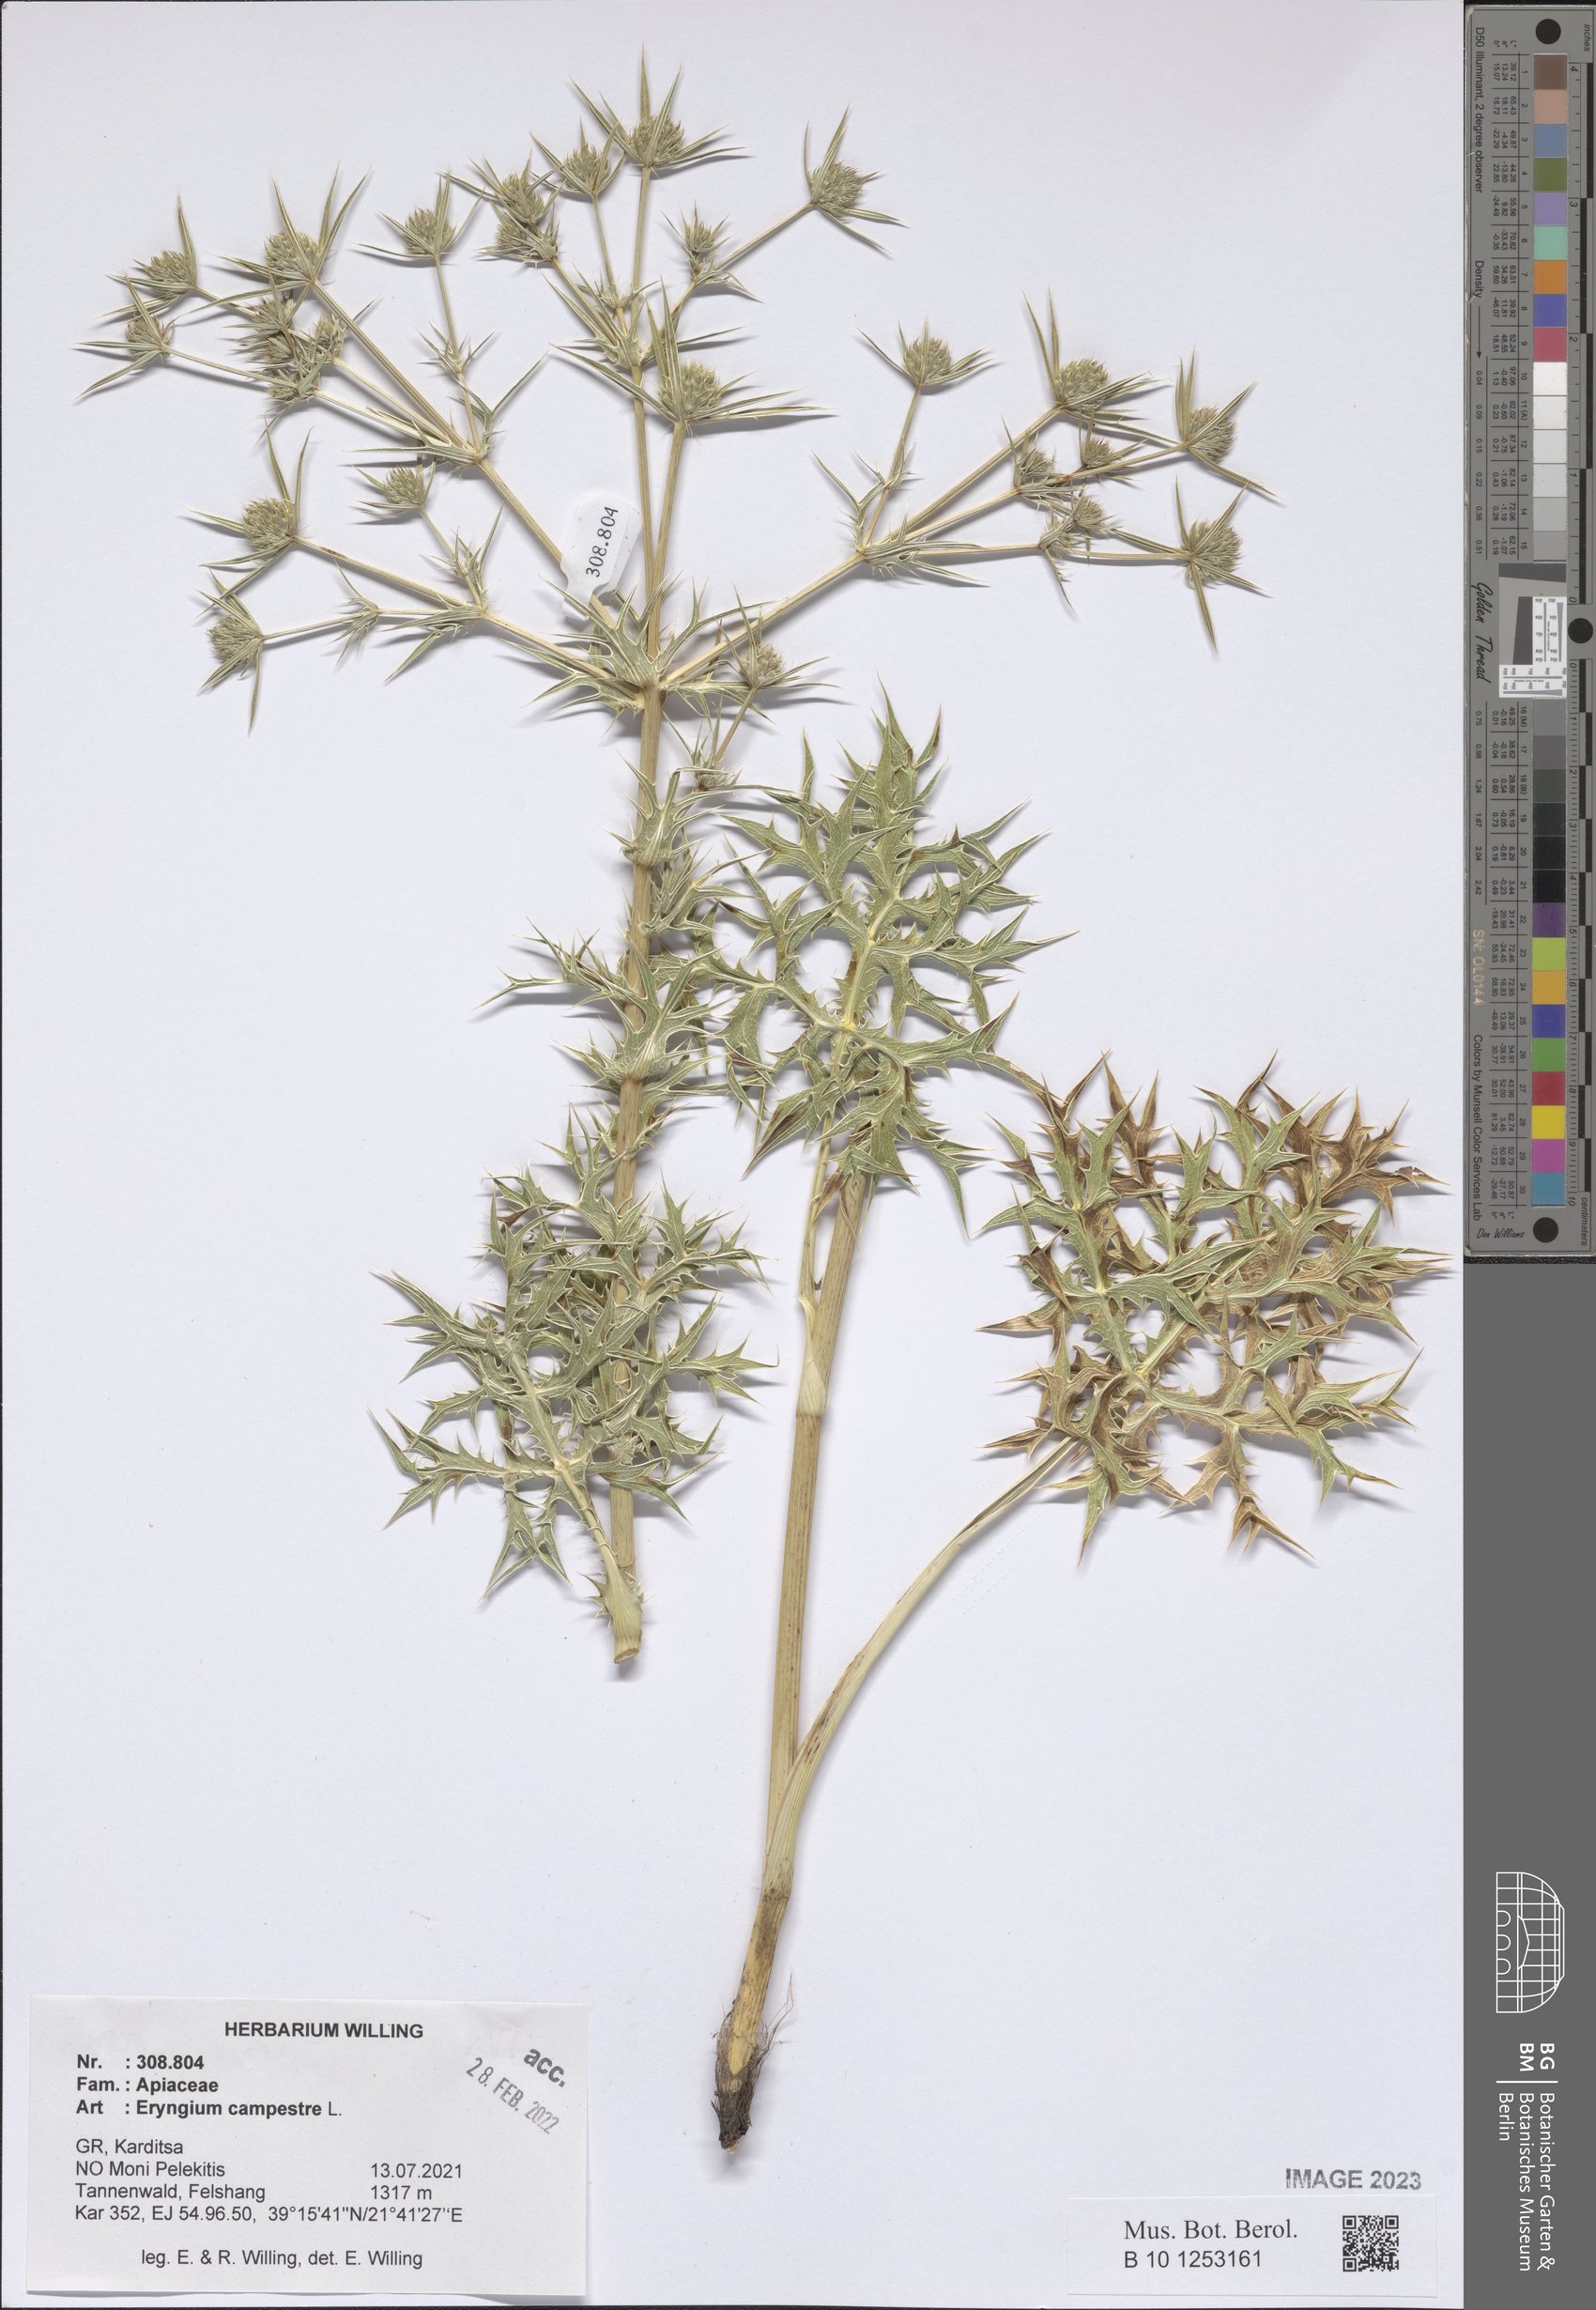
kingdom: Plantae
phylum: Tracheophyta
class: Magnoliopsida
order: Apiales
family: Apiaceae
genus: Eryngium
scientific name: Eryngium campestre
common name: Field eryngo
